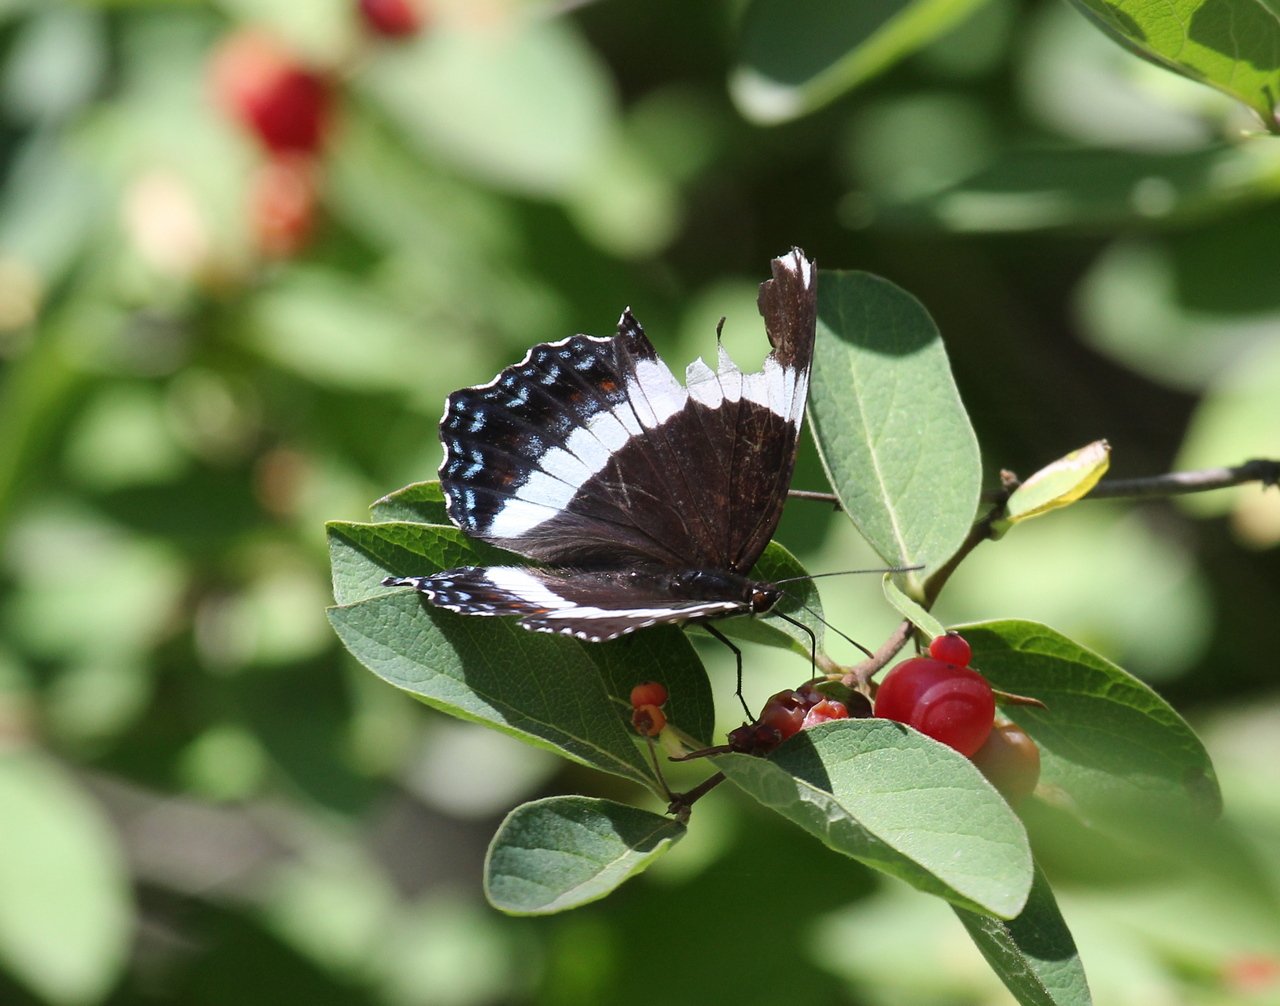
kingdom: Animalia
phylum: Arthropoda
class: Insecta
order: Lepidoptera
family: Nymphalidae
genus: Limenitis
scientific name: Limenitis arthemis
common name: Red-spotted Admiral
